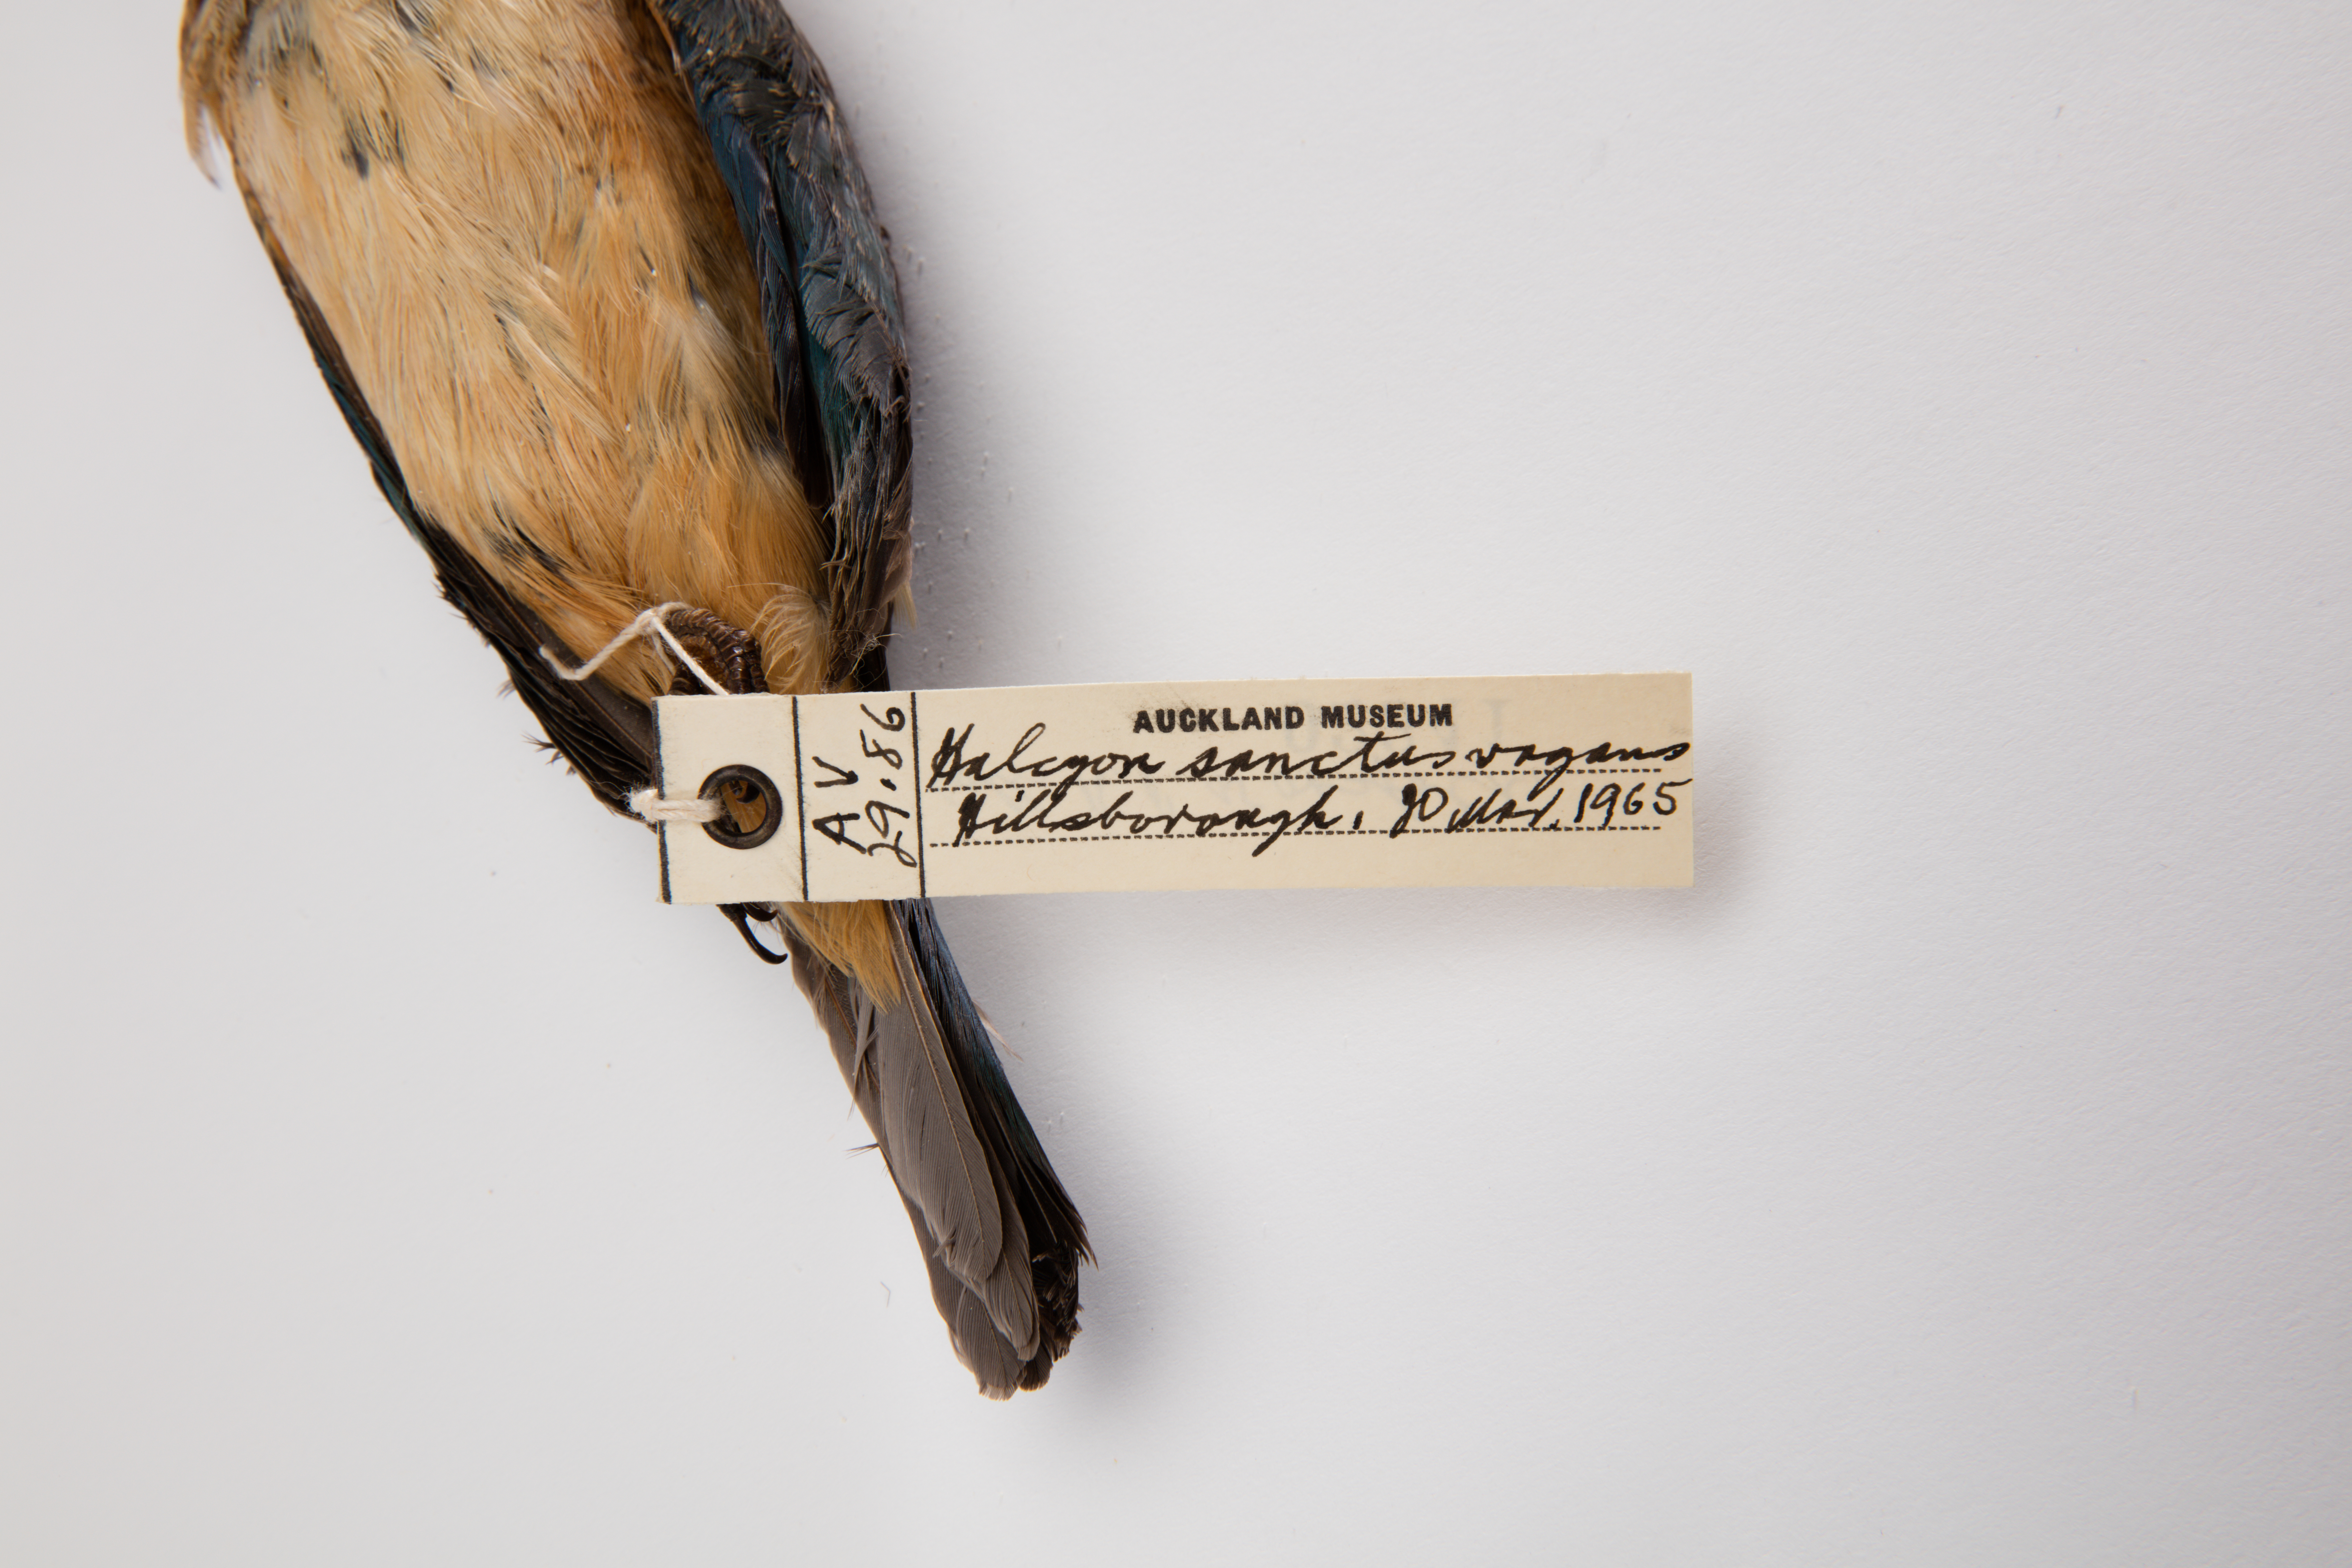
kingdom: Animalia
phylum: Chordata
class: Aves
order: Coraciiformes
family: Alcedinidae
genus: Todiramphus
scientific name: Todiramphus sanctus
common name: Sacred kingfisher
